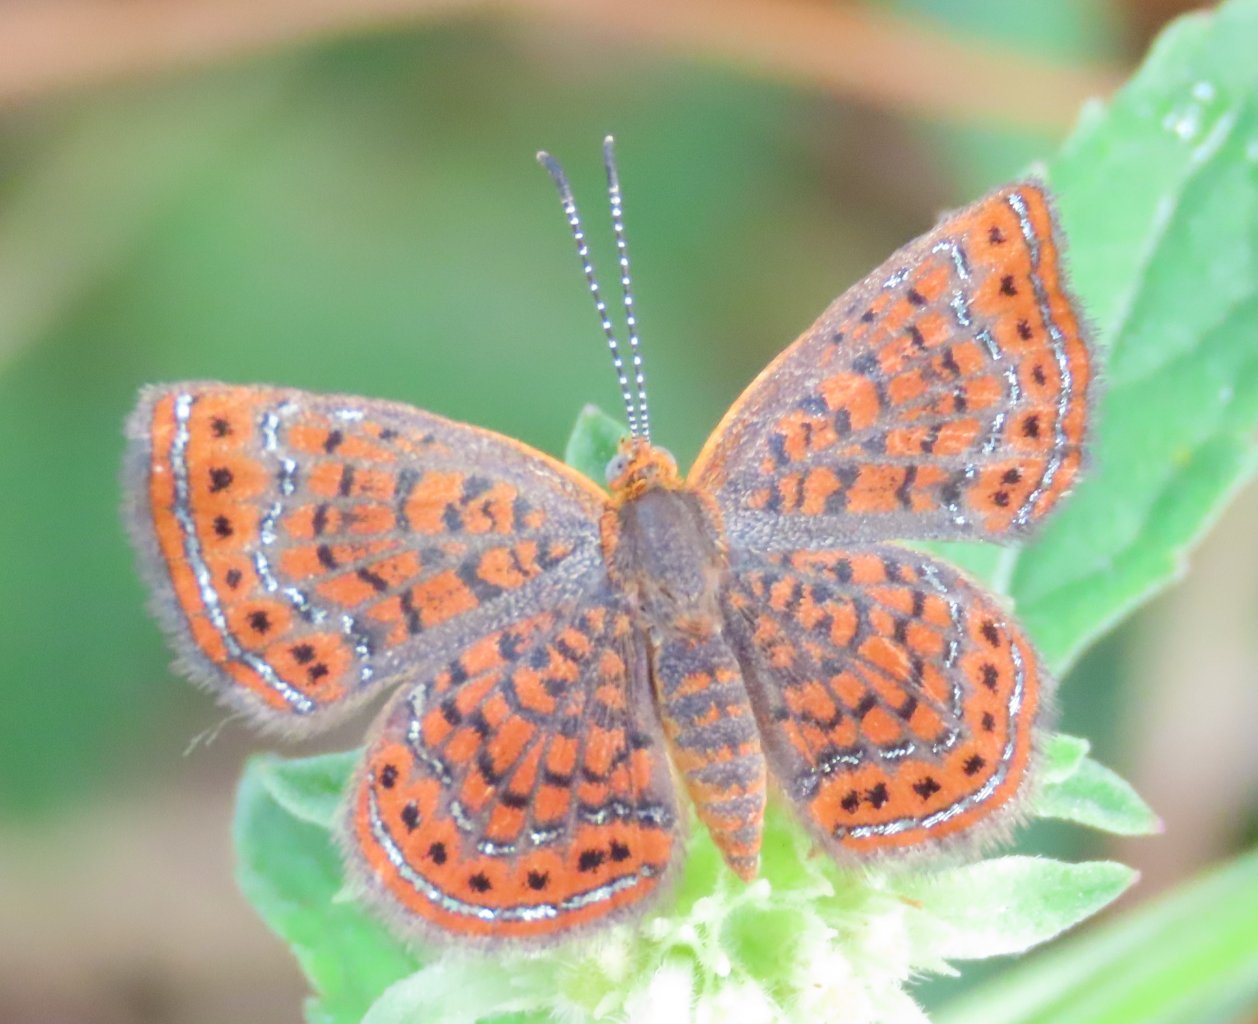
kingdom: Animalia
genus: Calephelis
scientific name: Calephelis virginiensis
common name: Little Metalmark
